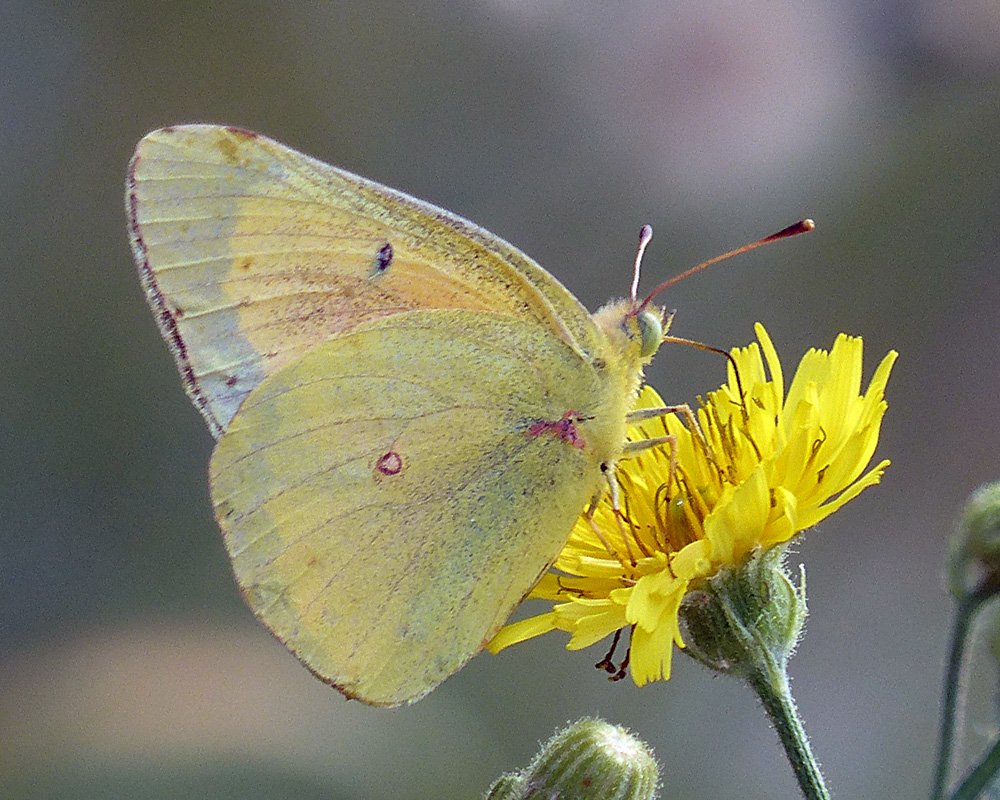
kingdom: Animalia
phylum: Arthropoda
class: Insecta
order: Lepidoptera
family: Pieridae
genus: Colias
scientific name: Colias eurytheme
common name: Orange Sulphur
